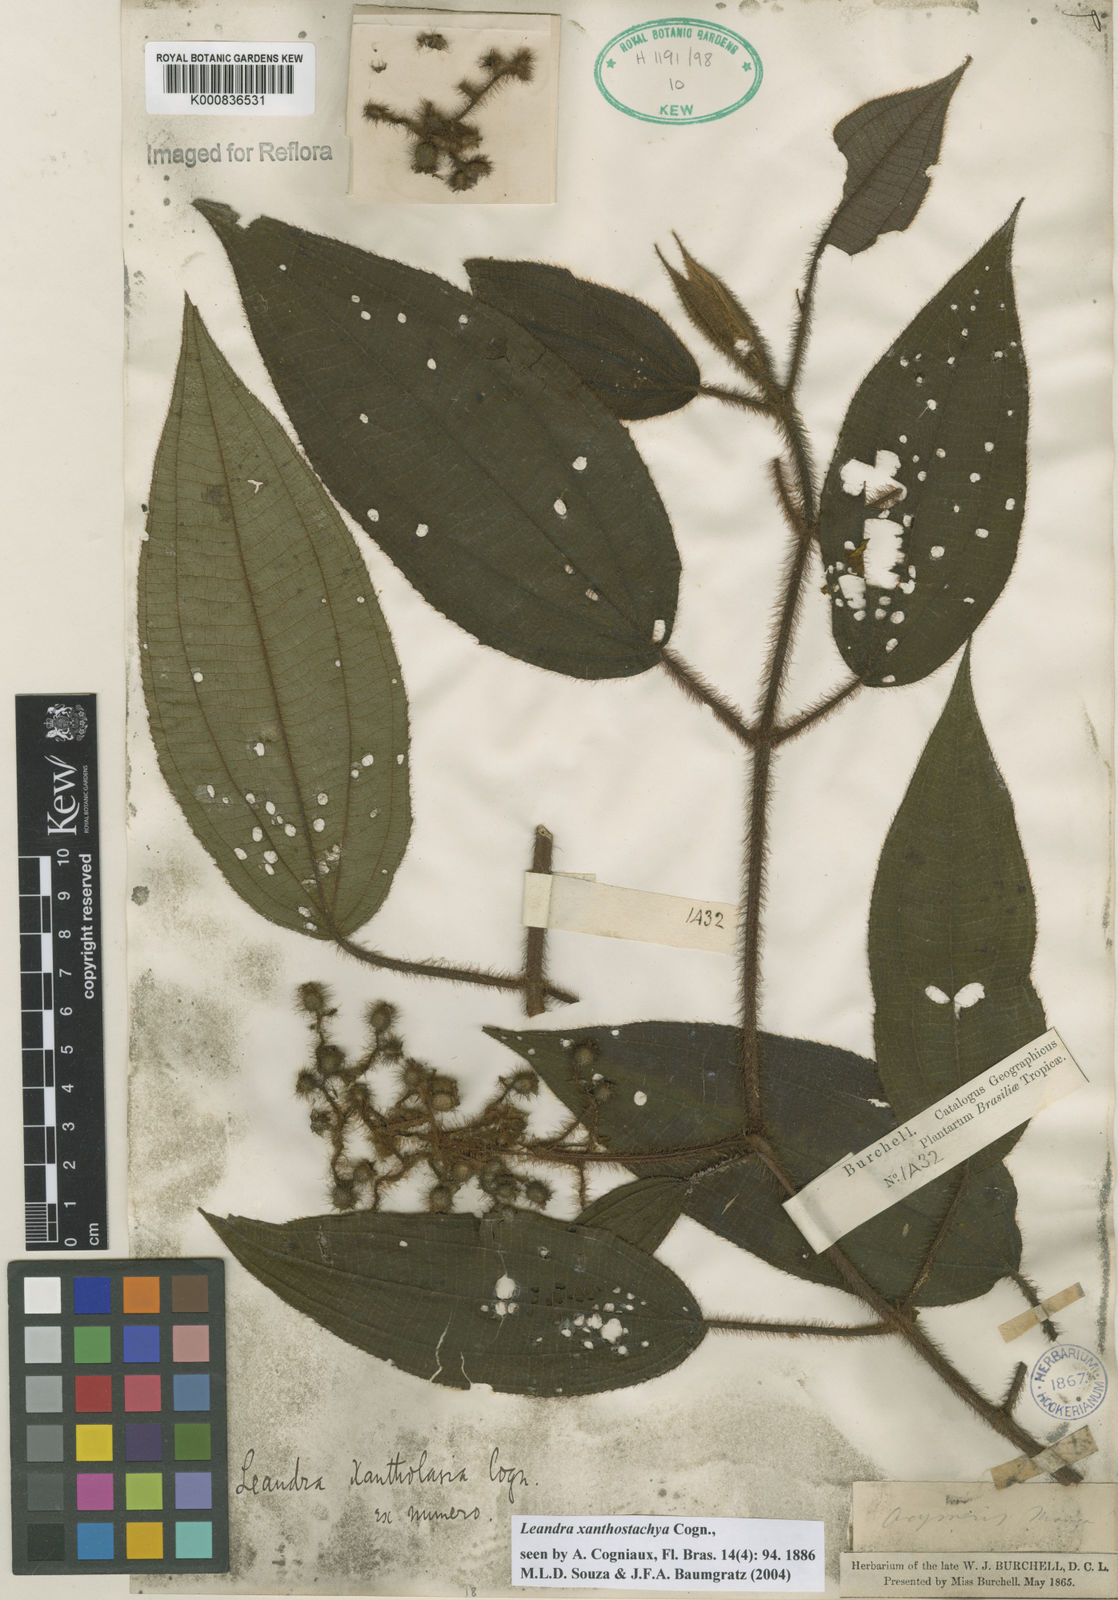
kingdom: Plantae
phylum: Tracheophyta
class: Magnoliopsida
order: Myrtales
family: Melastomataceae
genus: Miconia
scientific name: Miconia xanthostachya
